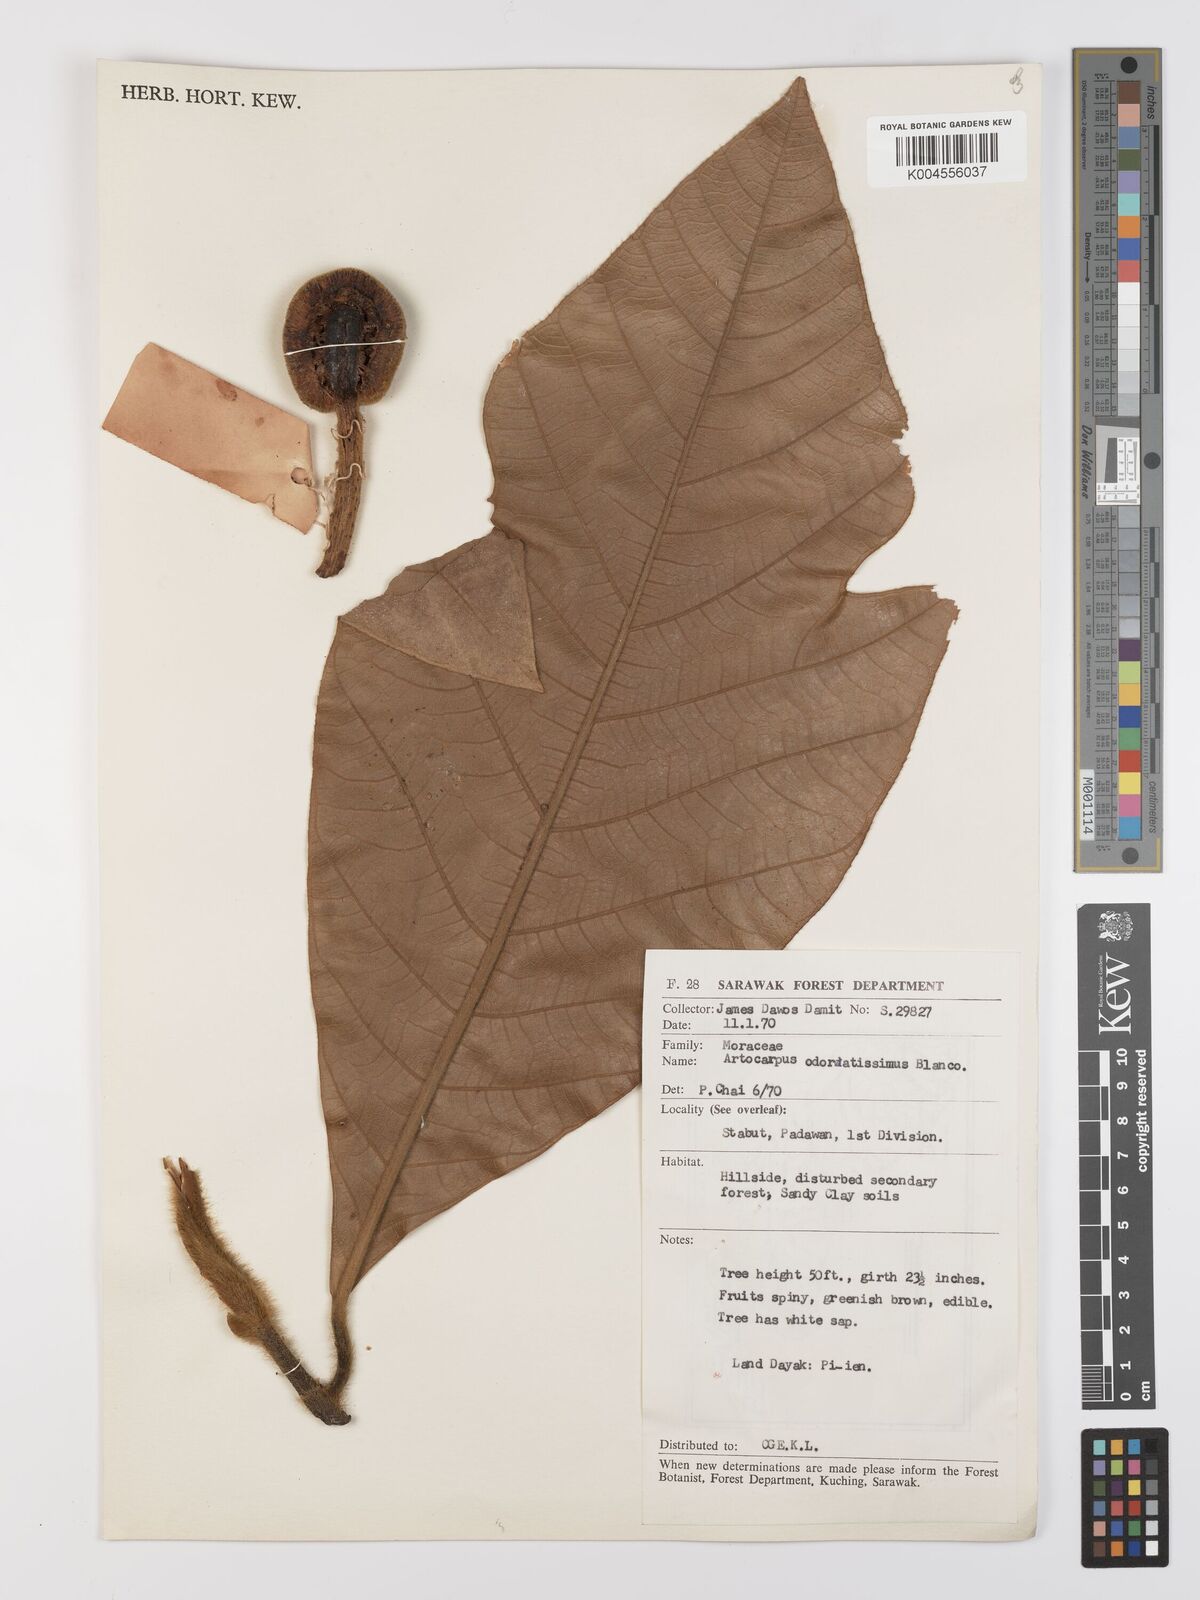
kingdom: Plantae
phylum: Tracheophyta
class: Magnoliopsida
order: Rosales
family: Moraceae
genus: Artocarpus
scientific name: Artocarpus odoratissimus
